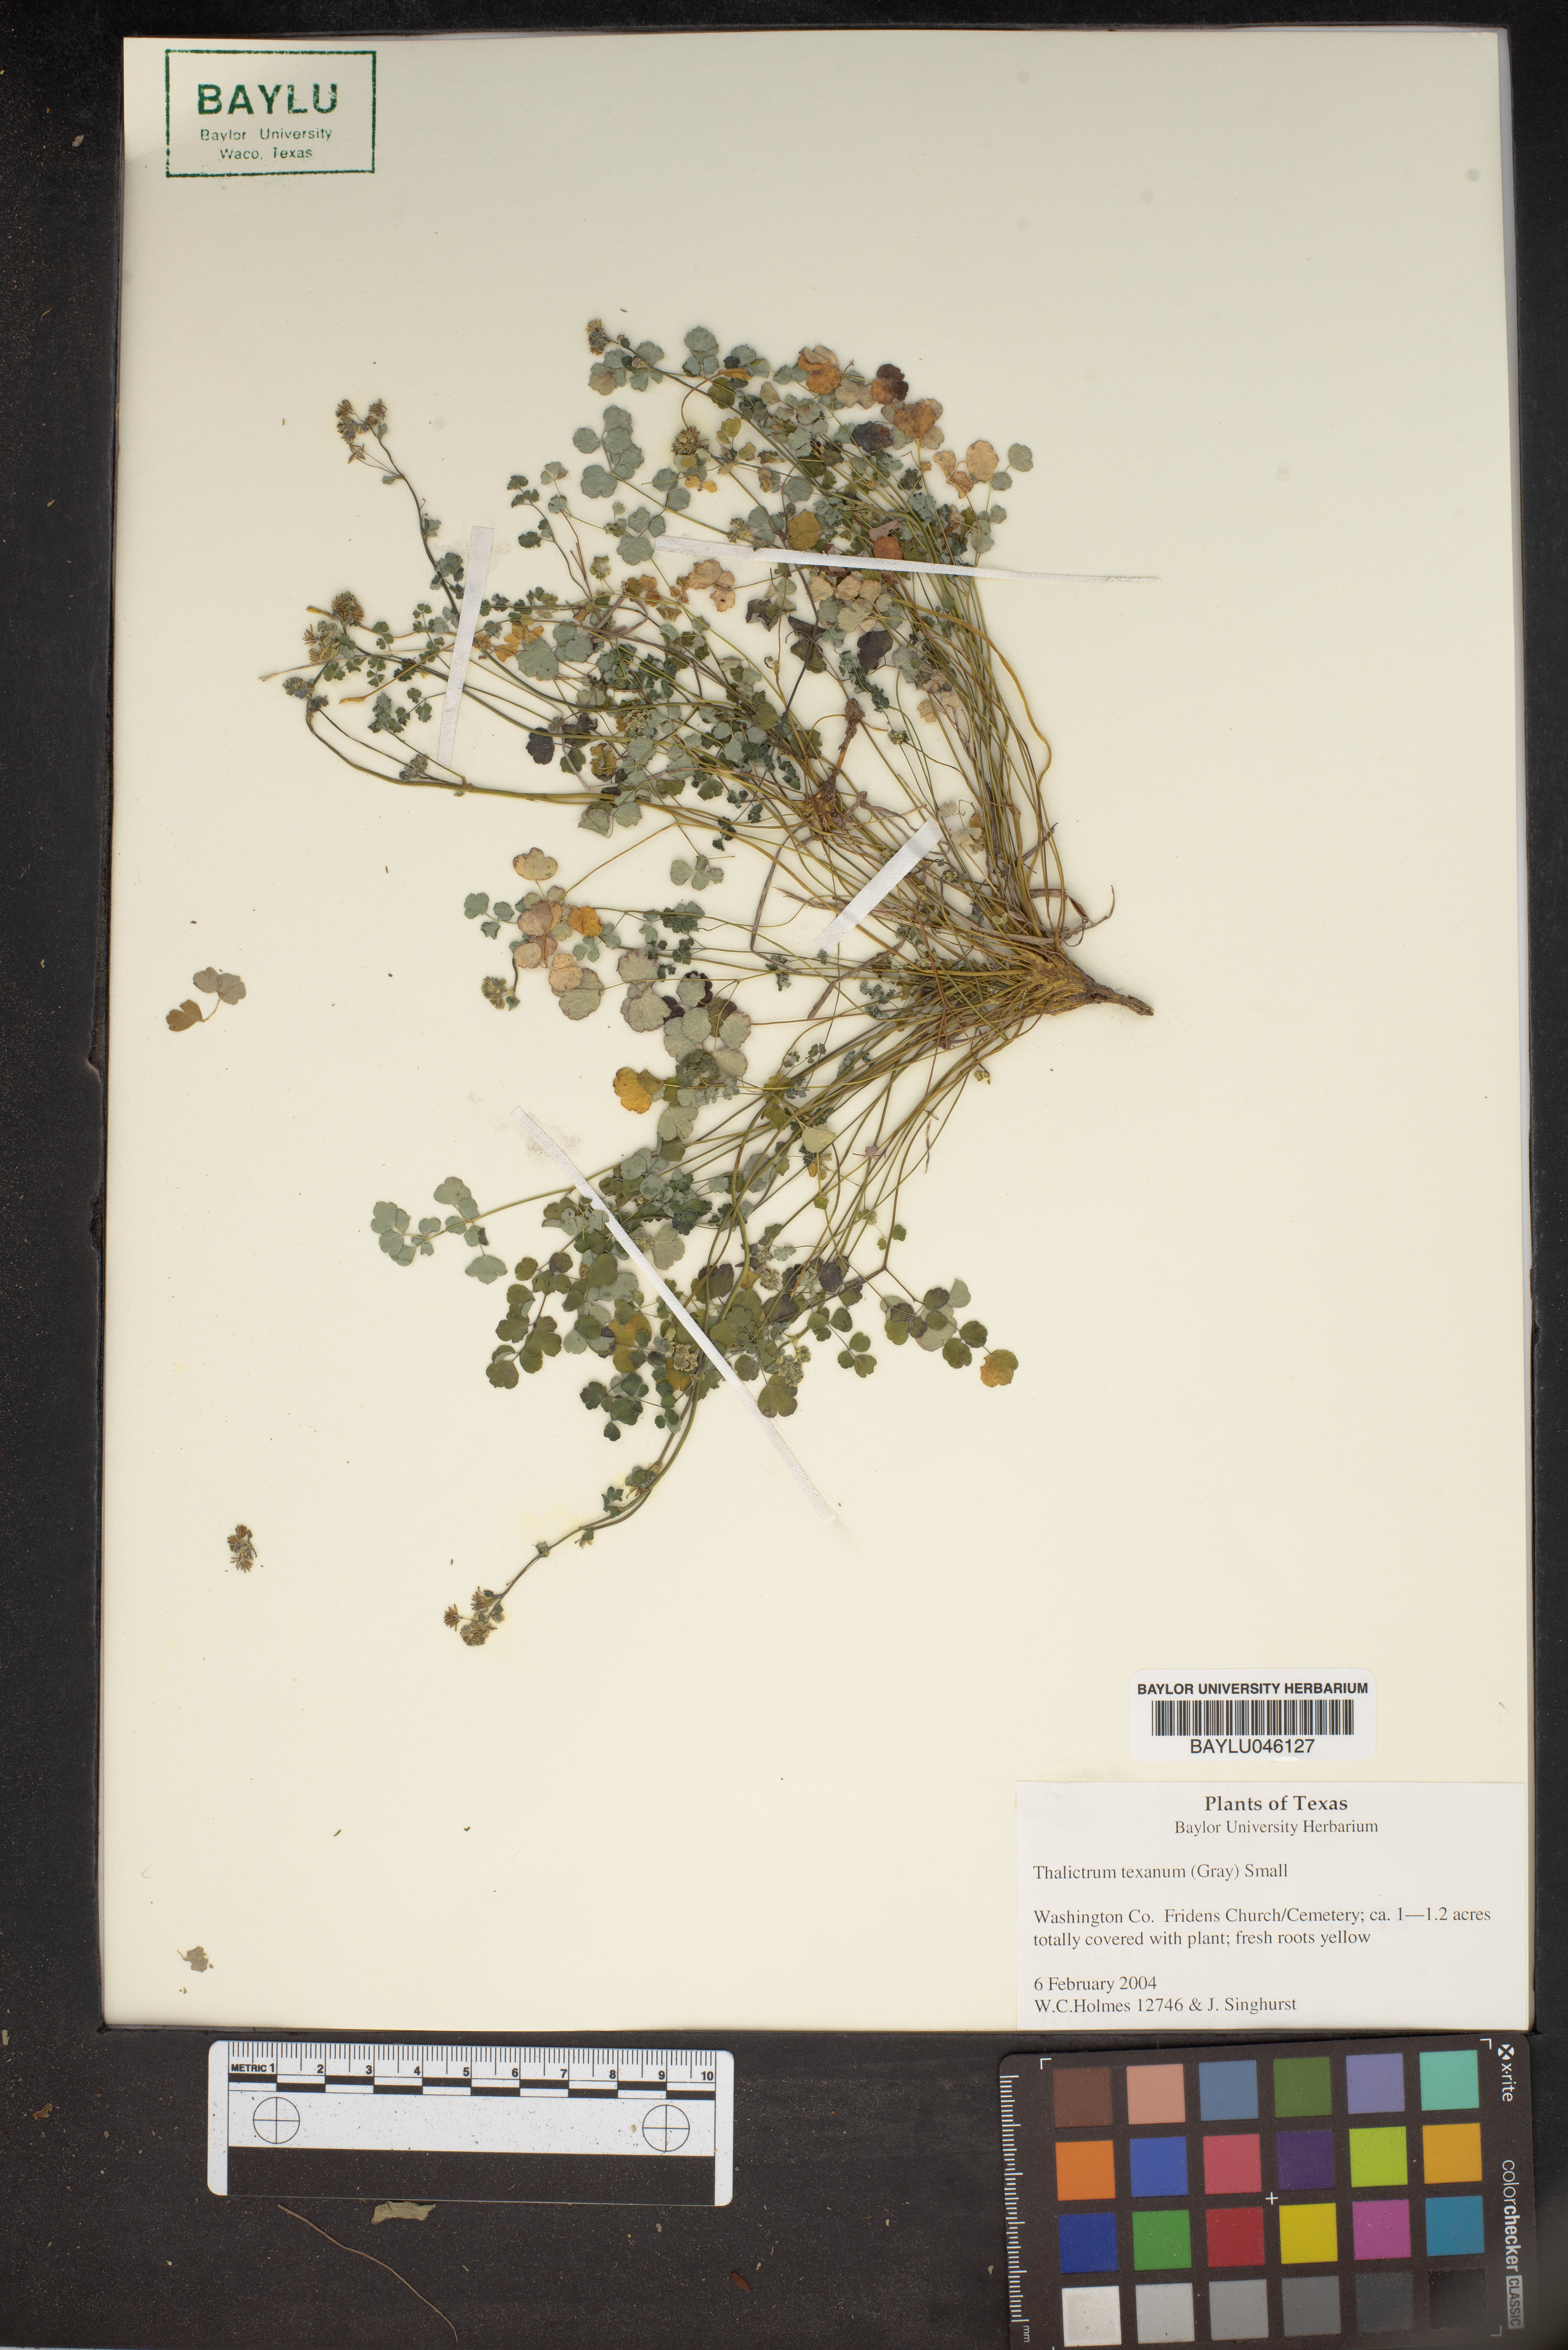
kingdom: Plantae
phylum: Tracheophyta
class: Magnoliopsida
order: Ranunculales
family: Ranunculaceae
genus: Thalictrum
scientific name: Thalictrum texanum
